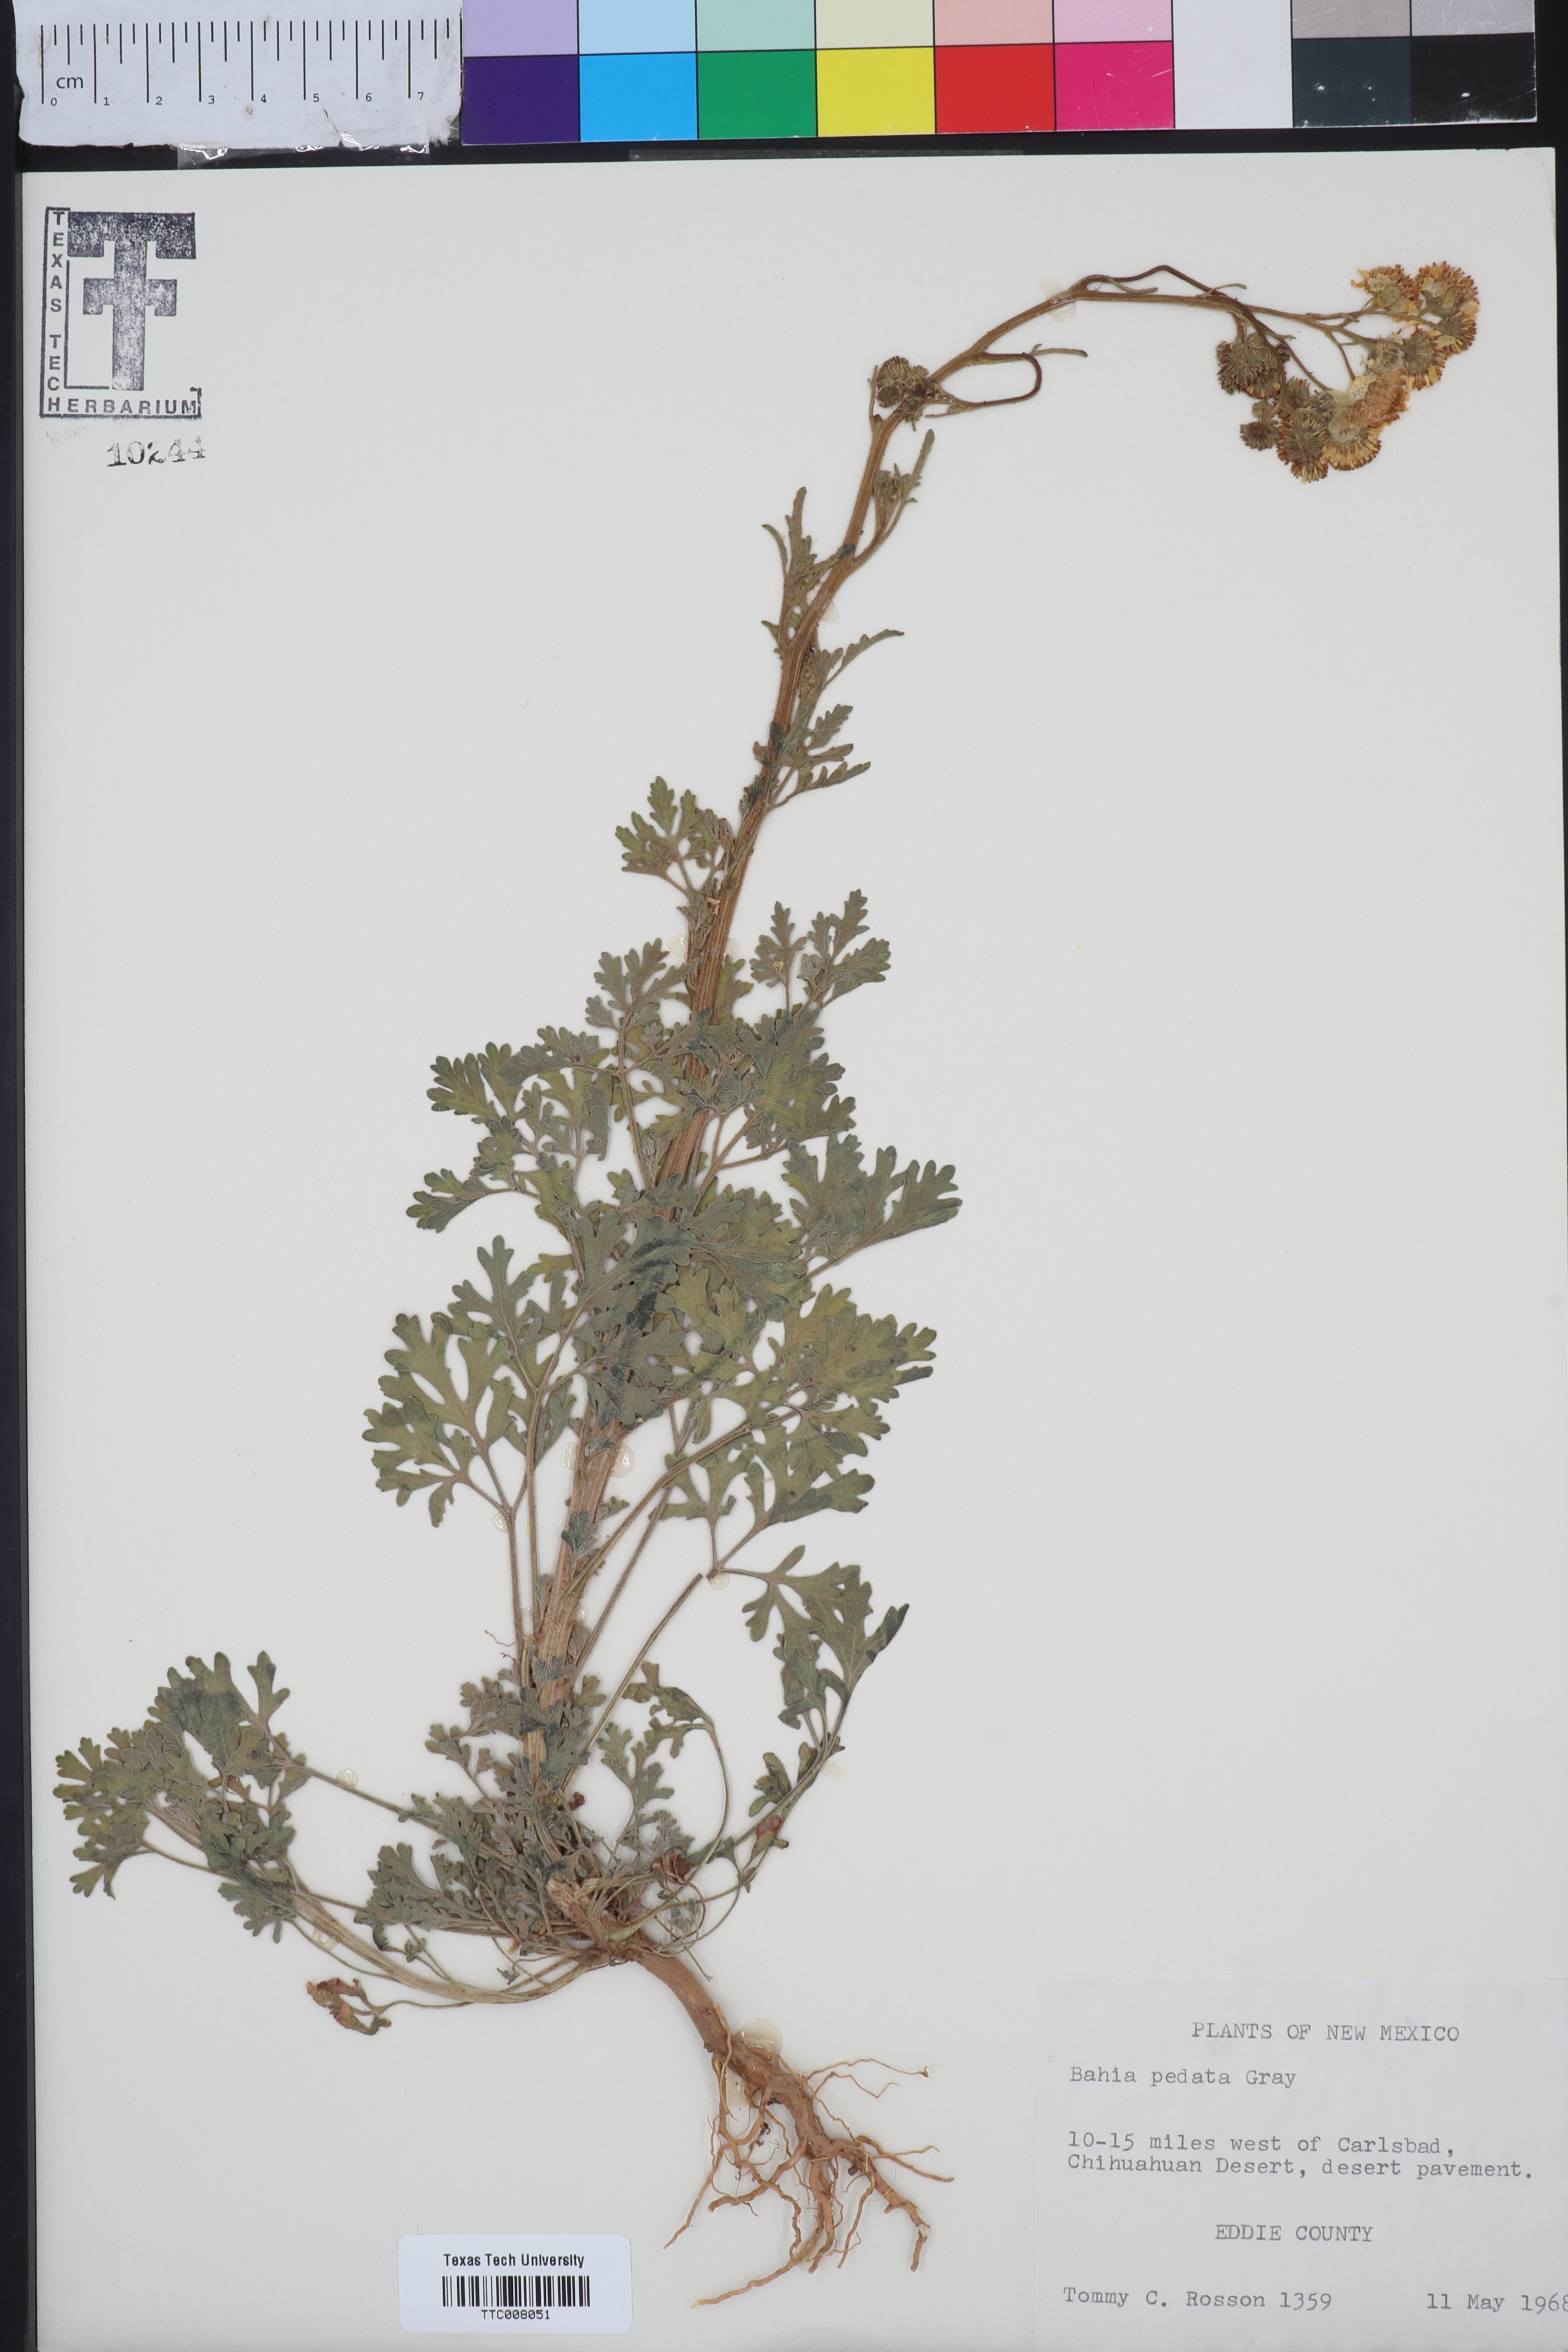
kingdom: Plantae
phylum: Tracheophyta
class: Magnoliopsida
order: Asterales
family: Asteraceae
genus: Hymenothrix
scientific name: Hymenothrix pedata
